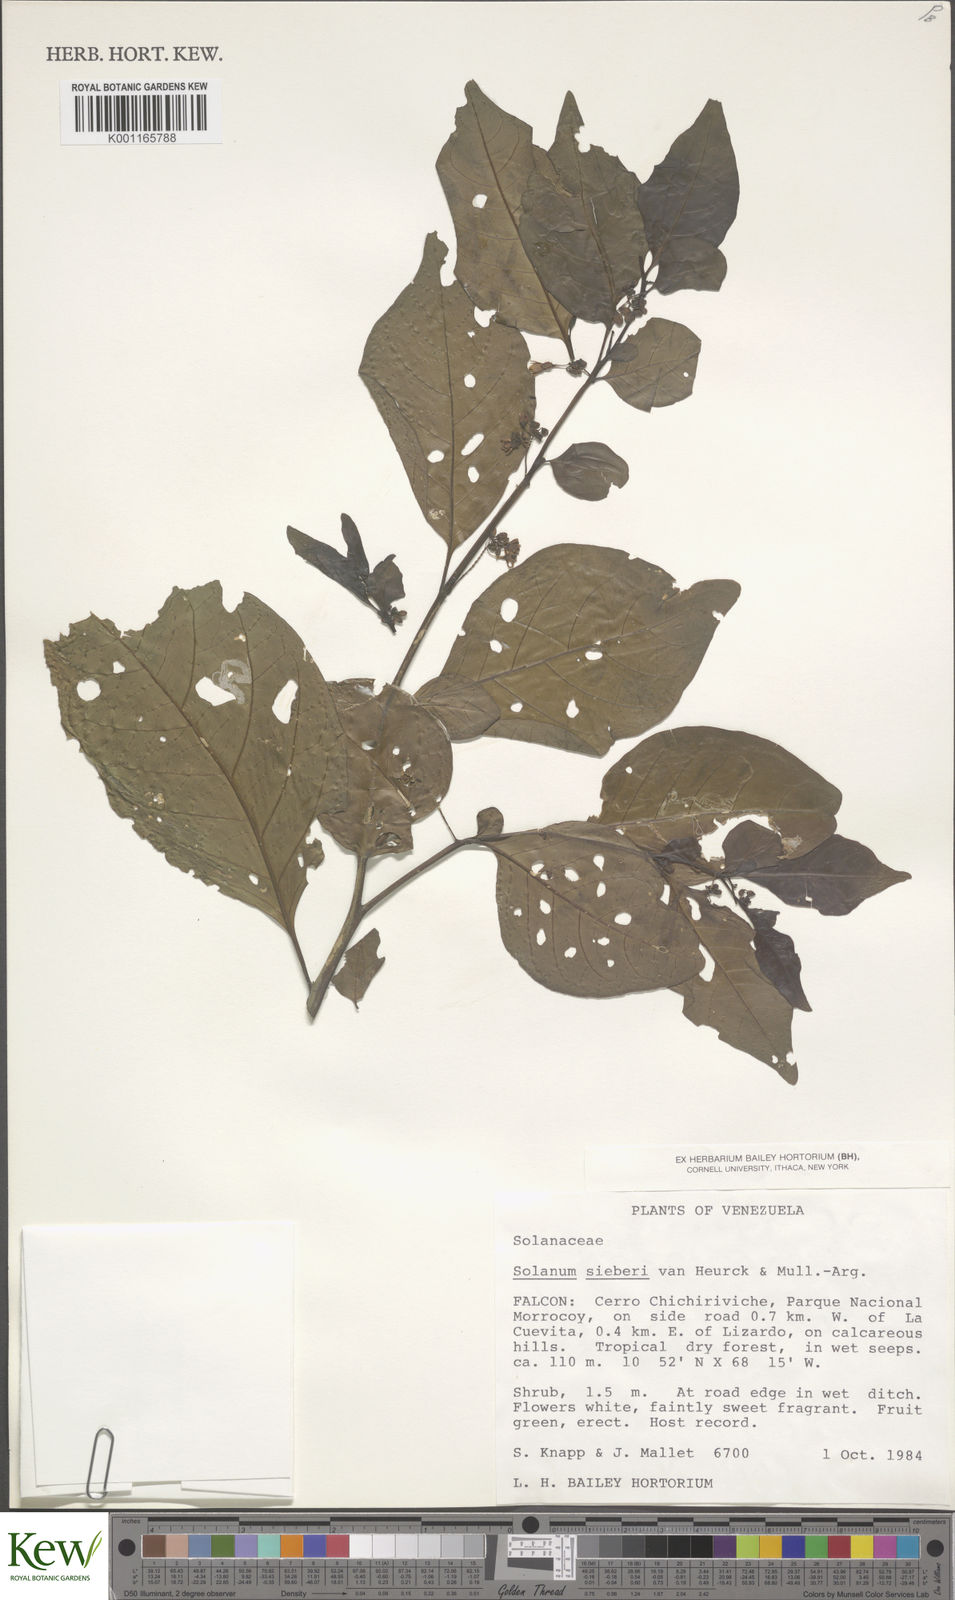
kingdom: Plantae
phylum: Tracheophyta
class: Magnoliopsida
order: Solanales
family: Solanaceae
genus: Solanum
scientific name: Solanum sieberi
